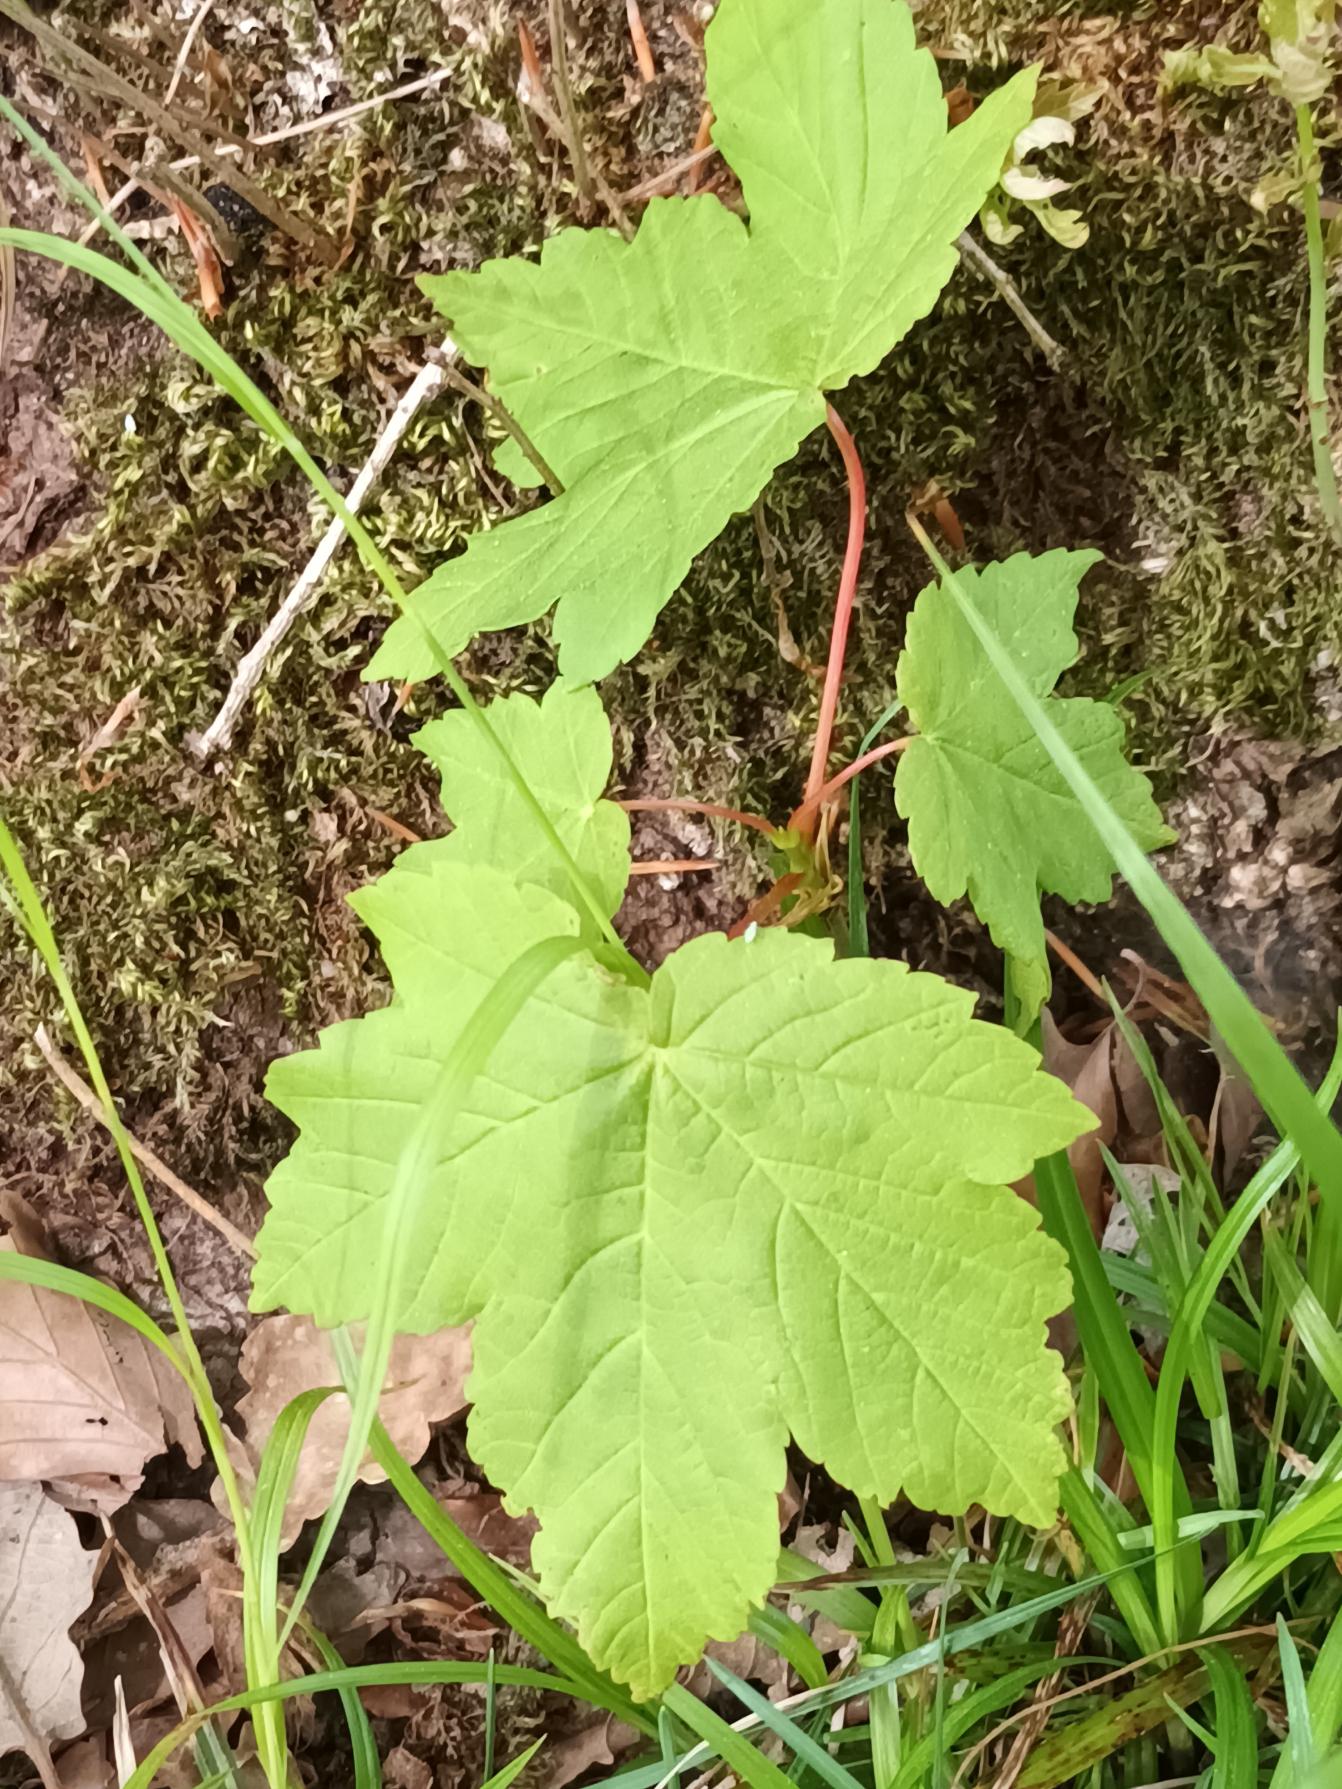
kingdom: Plantae
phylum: Tracheophyta
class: Magnoliopsida
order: Sapindales
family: Sapindaceae
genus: Acer
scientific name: Acer pseudoplatanus
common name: Ahorn
